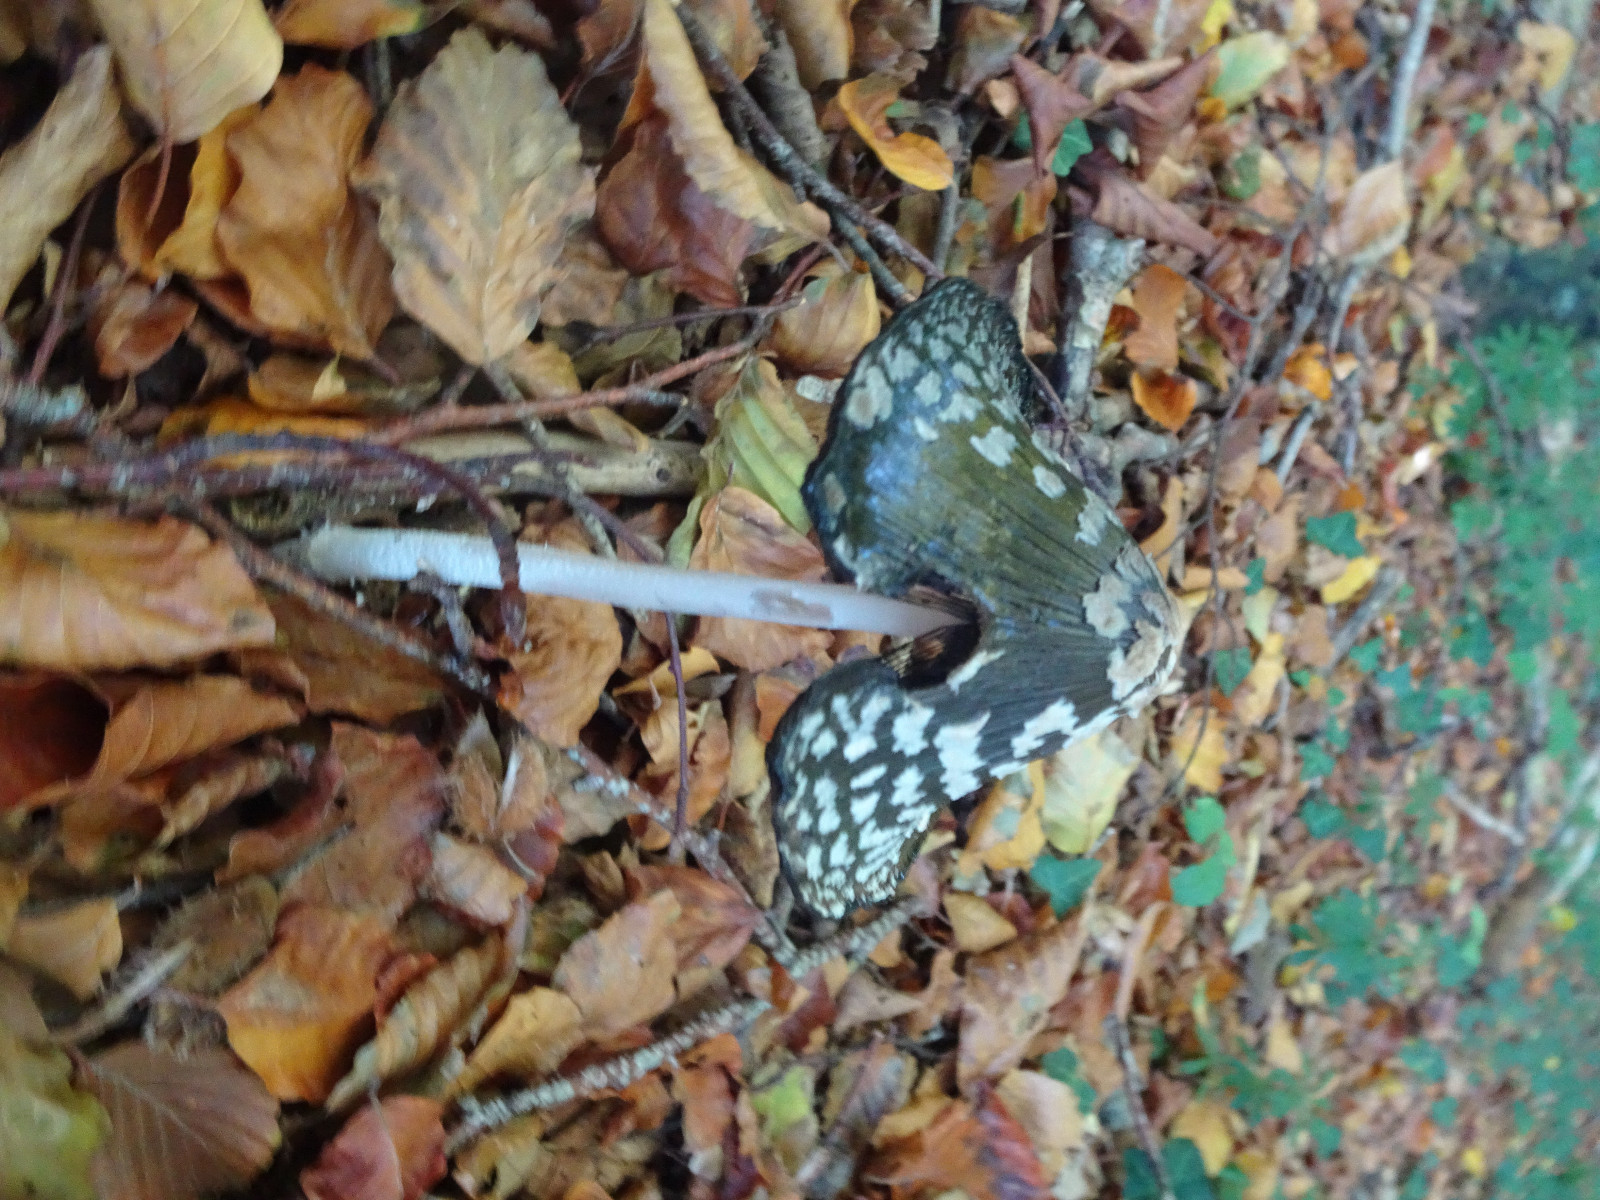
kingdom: Fungi
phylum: Basidiomycota
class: Agaricomycetes
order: Agaricales
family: Psathyrellaceae
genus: Coprinopsis
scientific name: Coprinopsis picacea
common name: skade-blækhat
